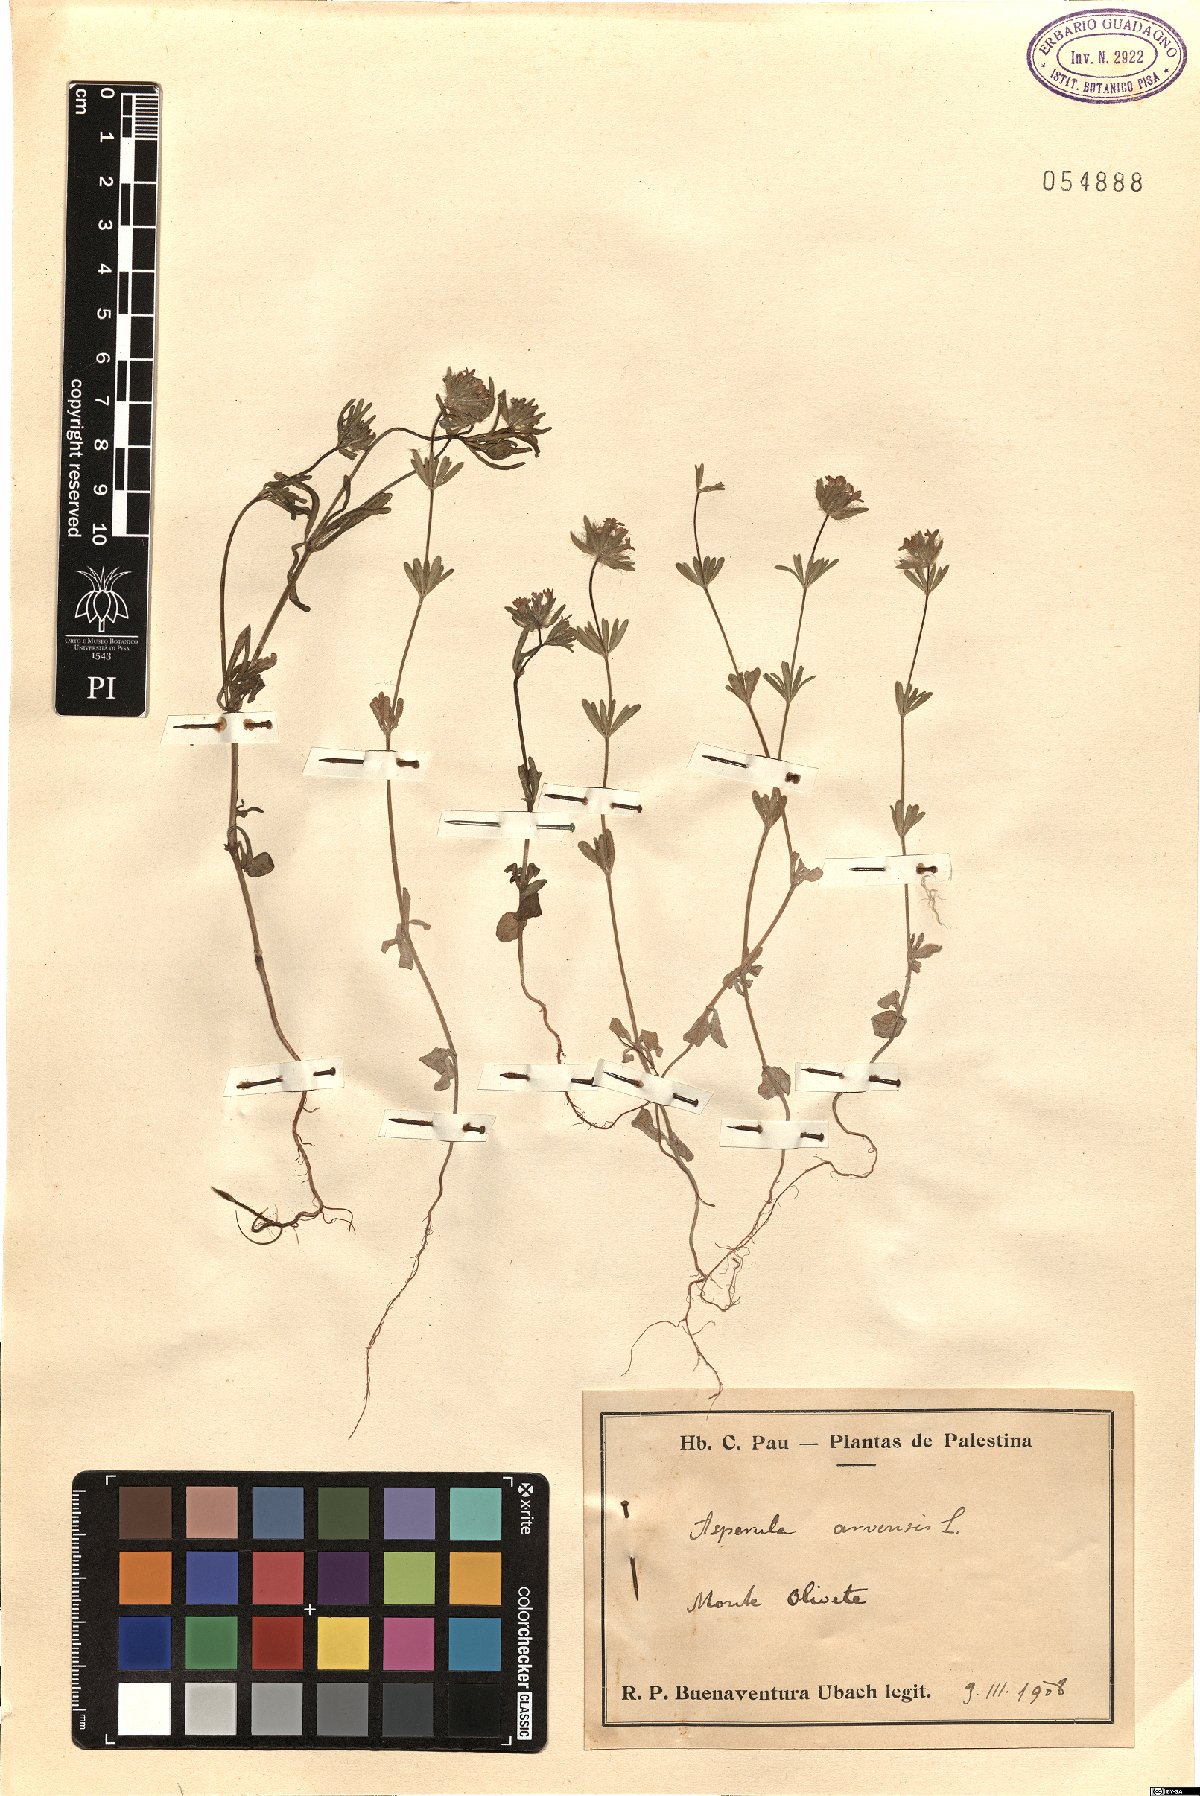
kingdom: Plantae
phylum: Tracheophyta
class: Magnoliopsida
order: Gentianales
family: Rubiaceae
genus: Asperula
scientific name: Asperula arvensis
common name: Blue woodruff
